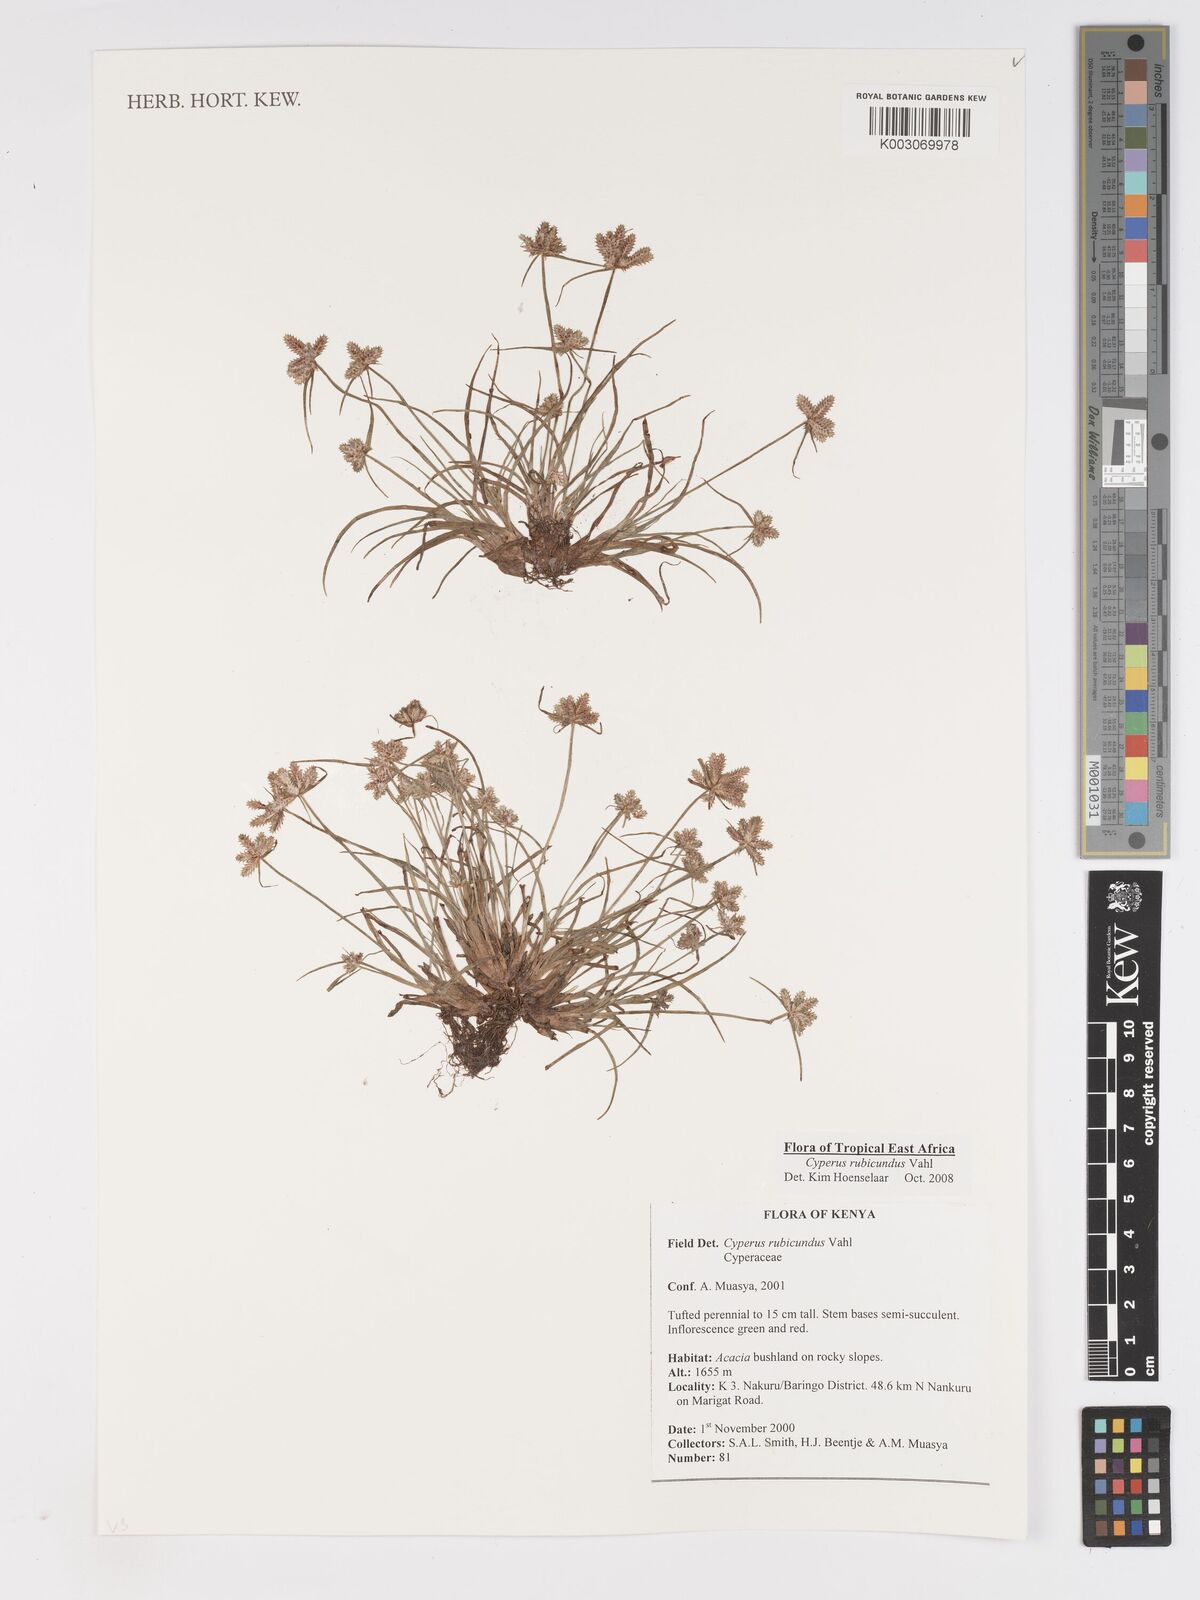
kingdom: Plantae
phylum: Tracheophyta
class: Liliopsida
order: Poales
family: Cyperaceae
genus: Cyperus
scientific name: Cyperus rubicundus
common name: Coco-grass
